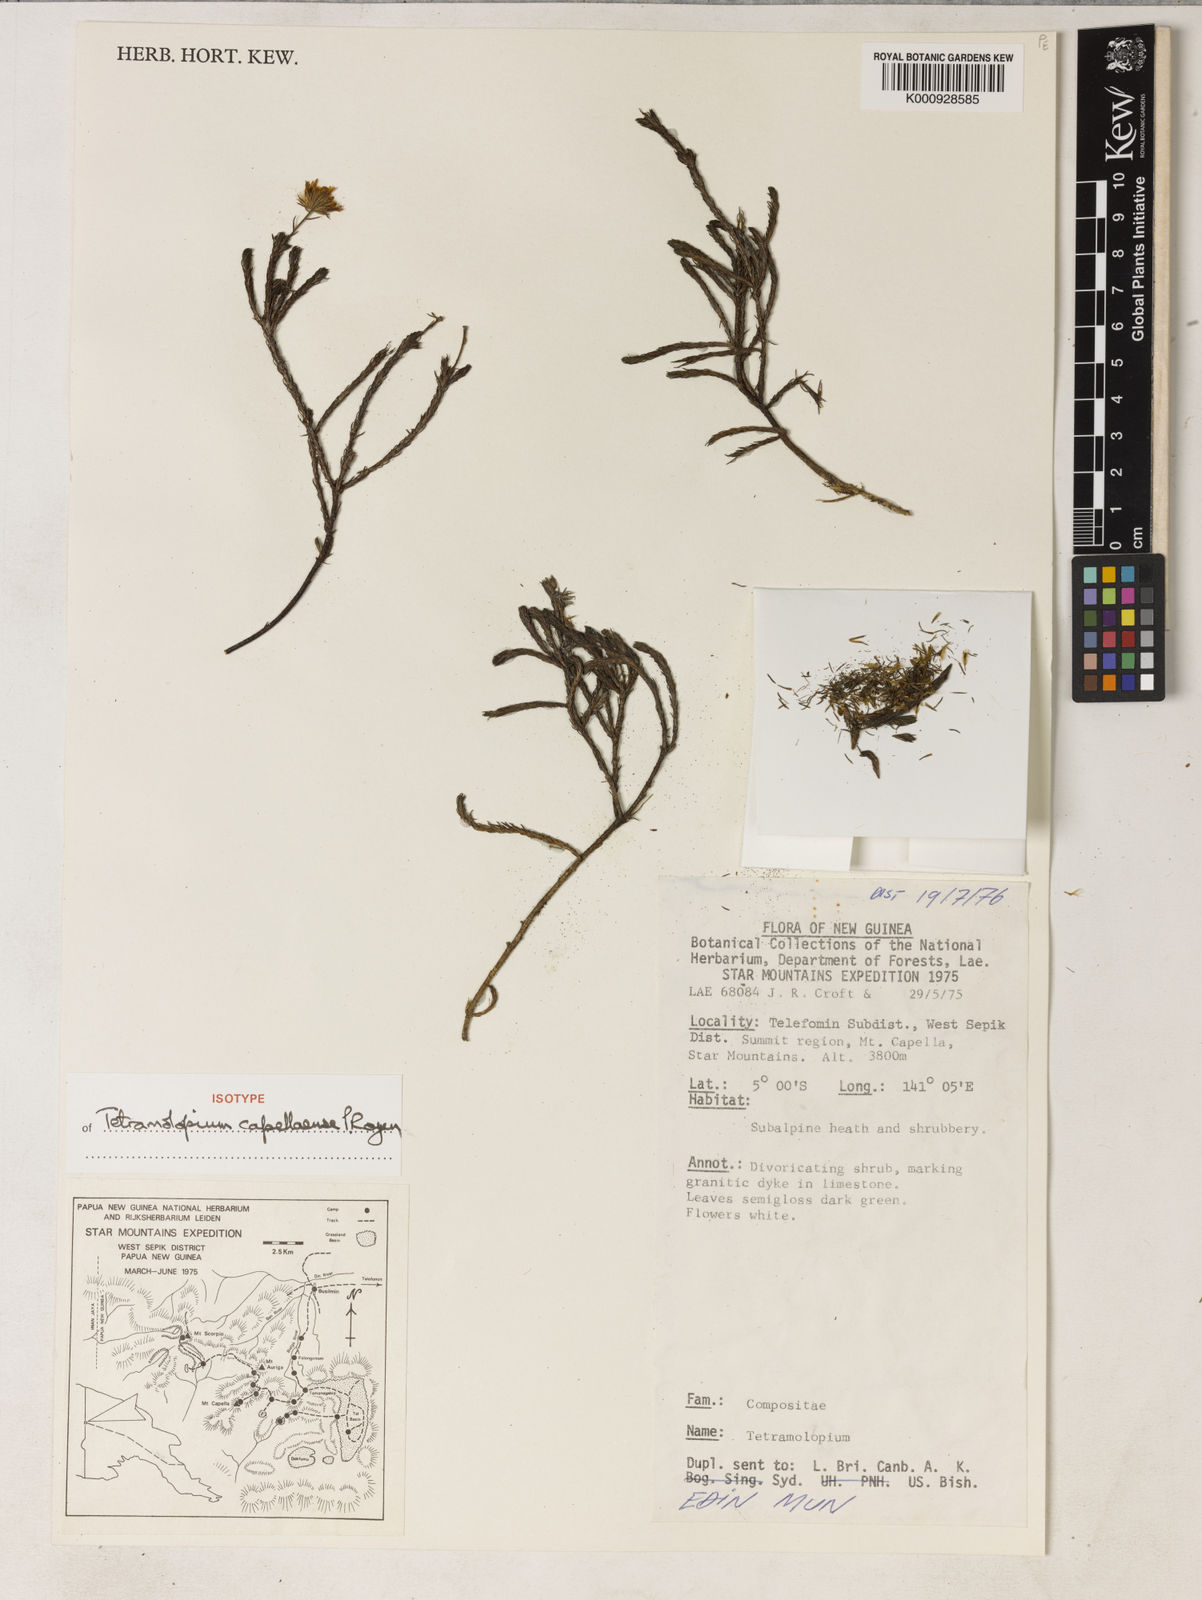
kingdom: Plantae
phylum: Tracheophyta
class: Magnoliopsida
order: Asterales
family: Asteraceae
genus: Tetramolopium
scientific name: Tetramolopium capellaense
